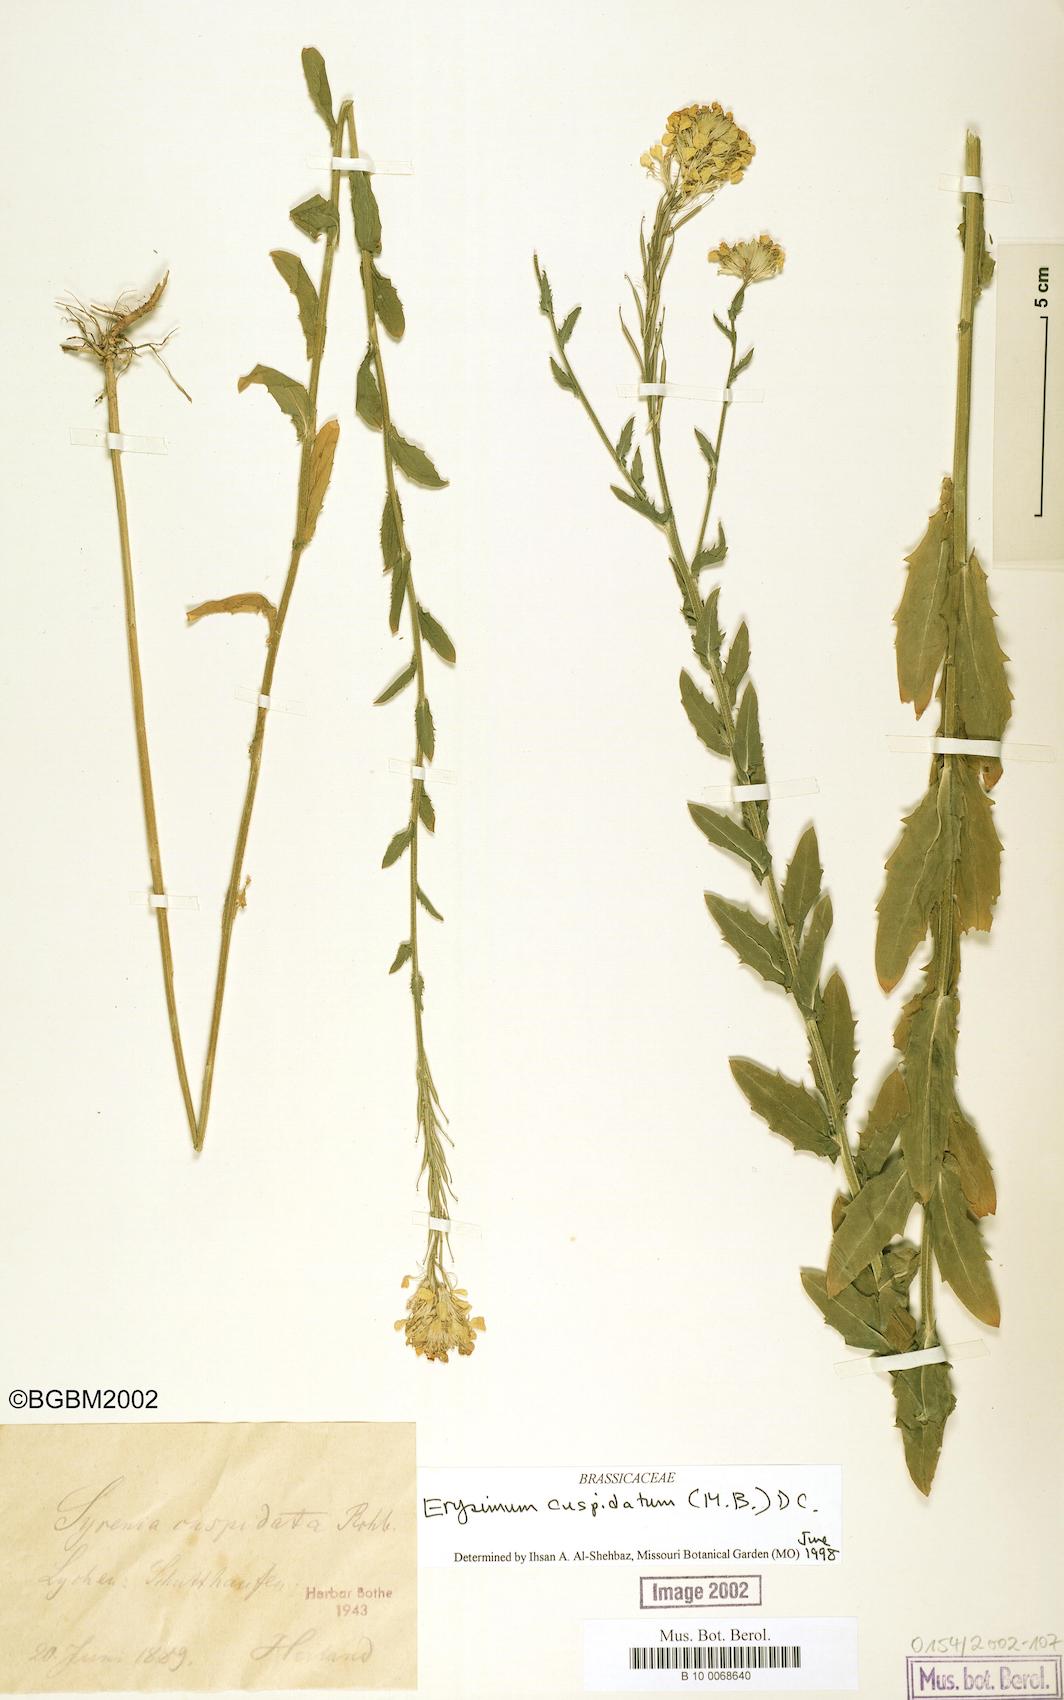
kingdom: Plantae
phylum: Tracheophyta
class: Magnoliopsida
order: Brassicales
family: Brassicaceae
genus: Erysimum
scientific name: Erysimum cuspidatum
